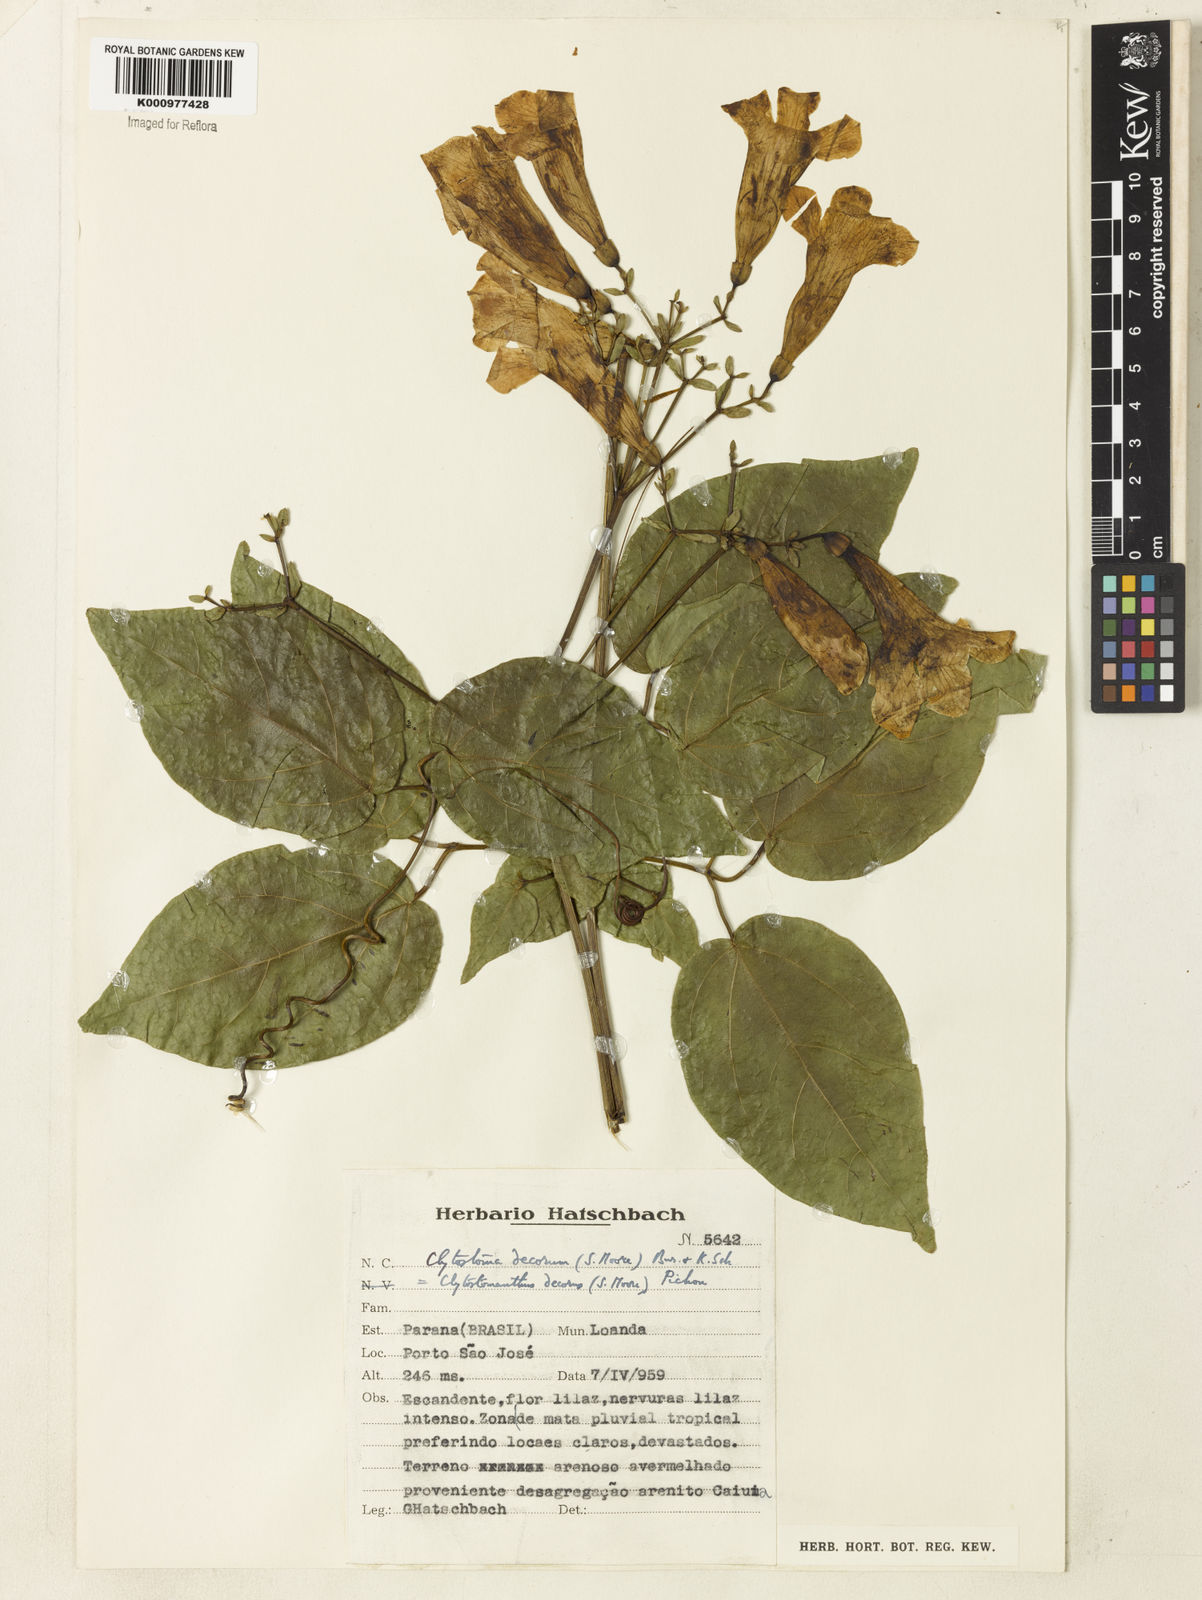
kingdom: Plantae
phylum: Tracheophyta
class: Magnoliopsida
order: Lamiales
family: Bignoniaceae
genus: Bignonia
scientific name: Bignonia decora
